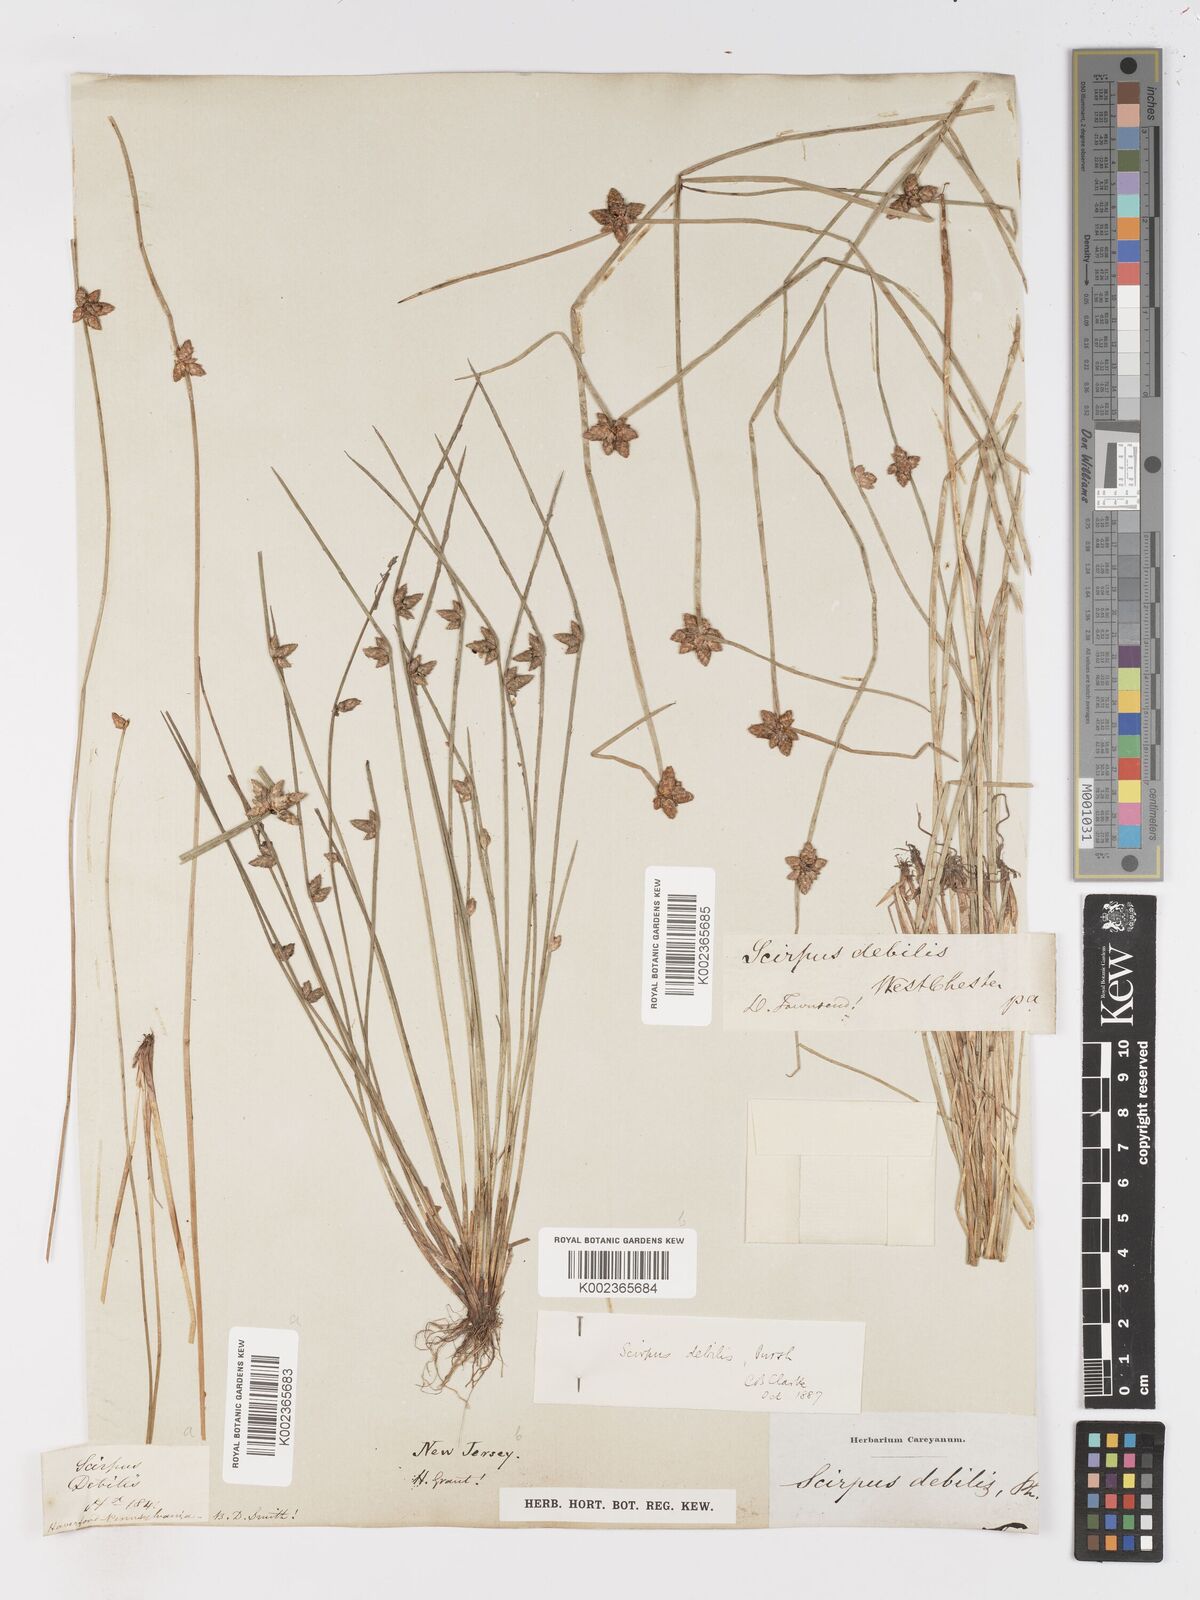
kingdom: Plantae
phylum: Tracheophyta
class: Liliopsida
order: Poales
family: Cyperaceae
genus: Schoenoplectiella
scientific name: Schoenoplectiella purshiana
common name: Weak-stalked bulrush
